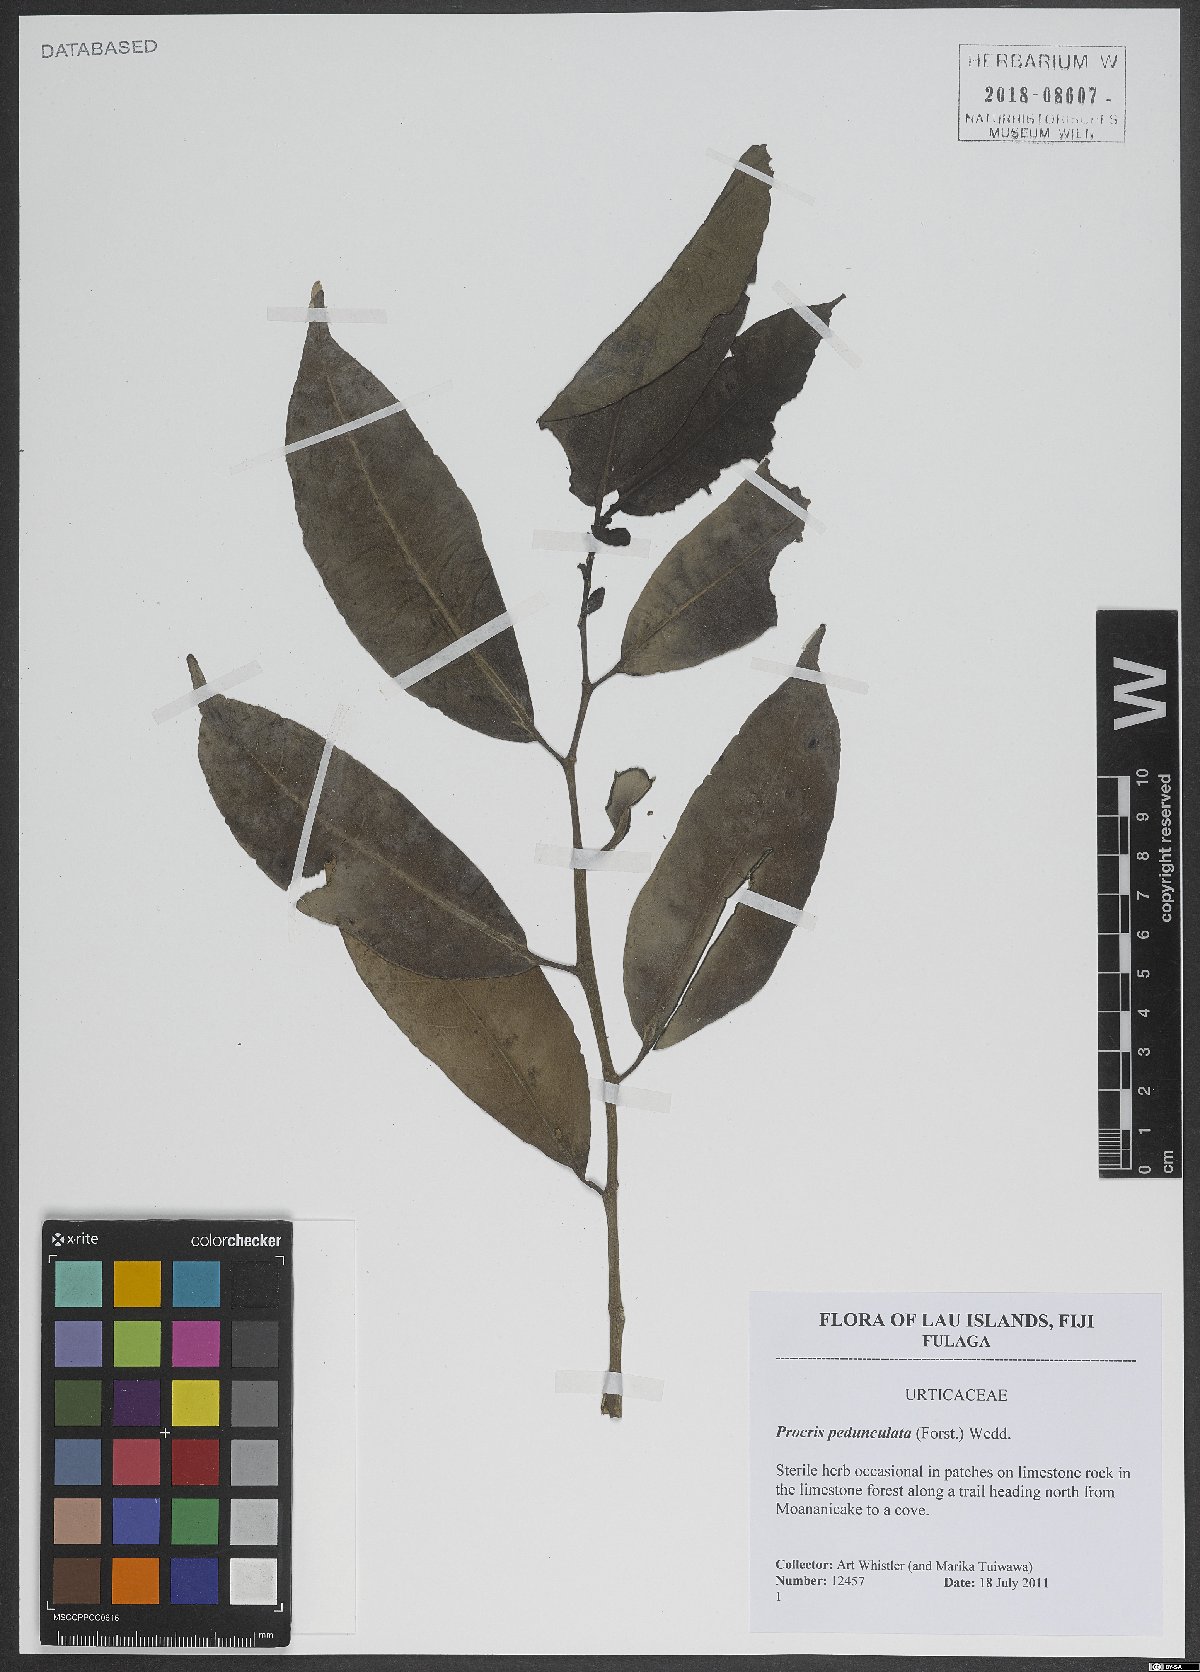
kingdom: Plantae
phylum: Tracheophyta
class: Magnoliopsida
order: Rosales
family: Urticaceae
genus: Procris
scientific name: Procris pedunculata
